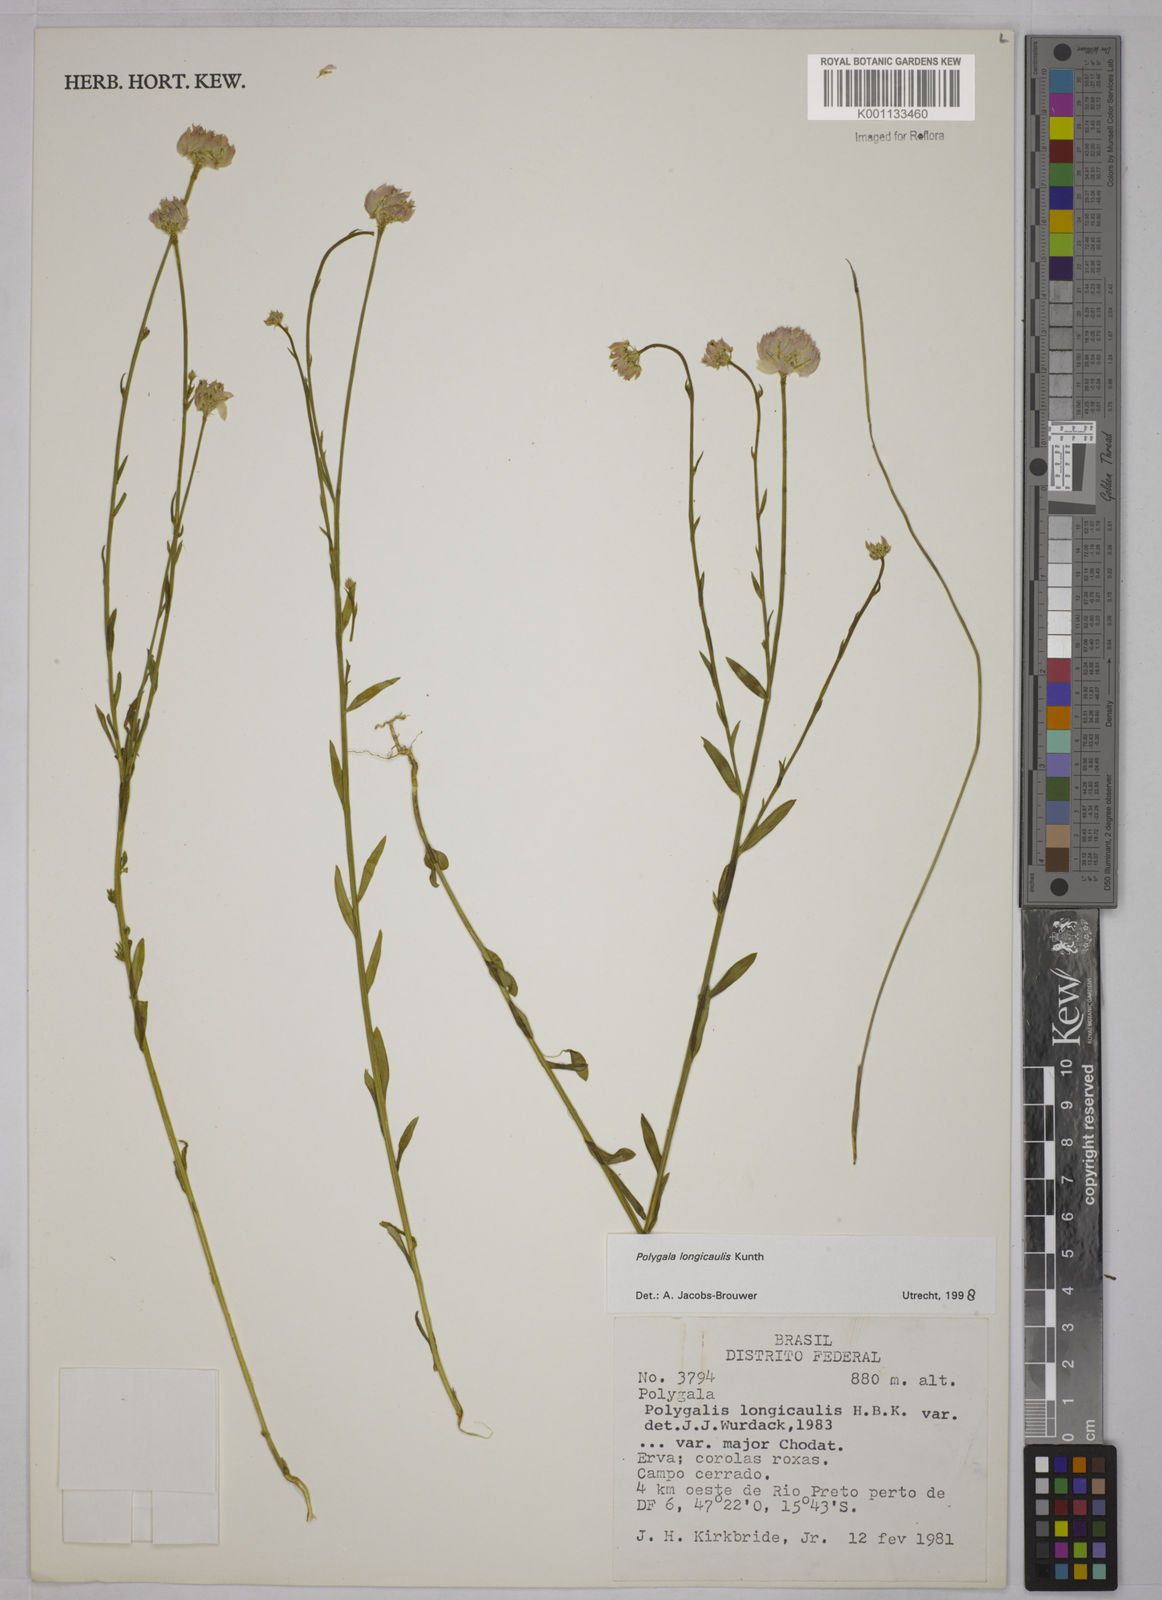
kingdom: Plantae
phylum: Tracheophyta
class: Magnoliopsida
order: Fabales
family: Polygalaceae
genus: Polygala
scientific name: Polygala longicaulis
